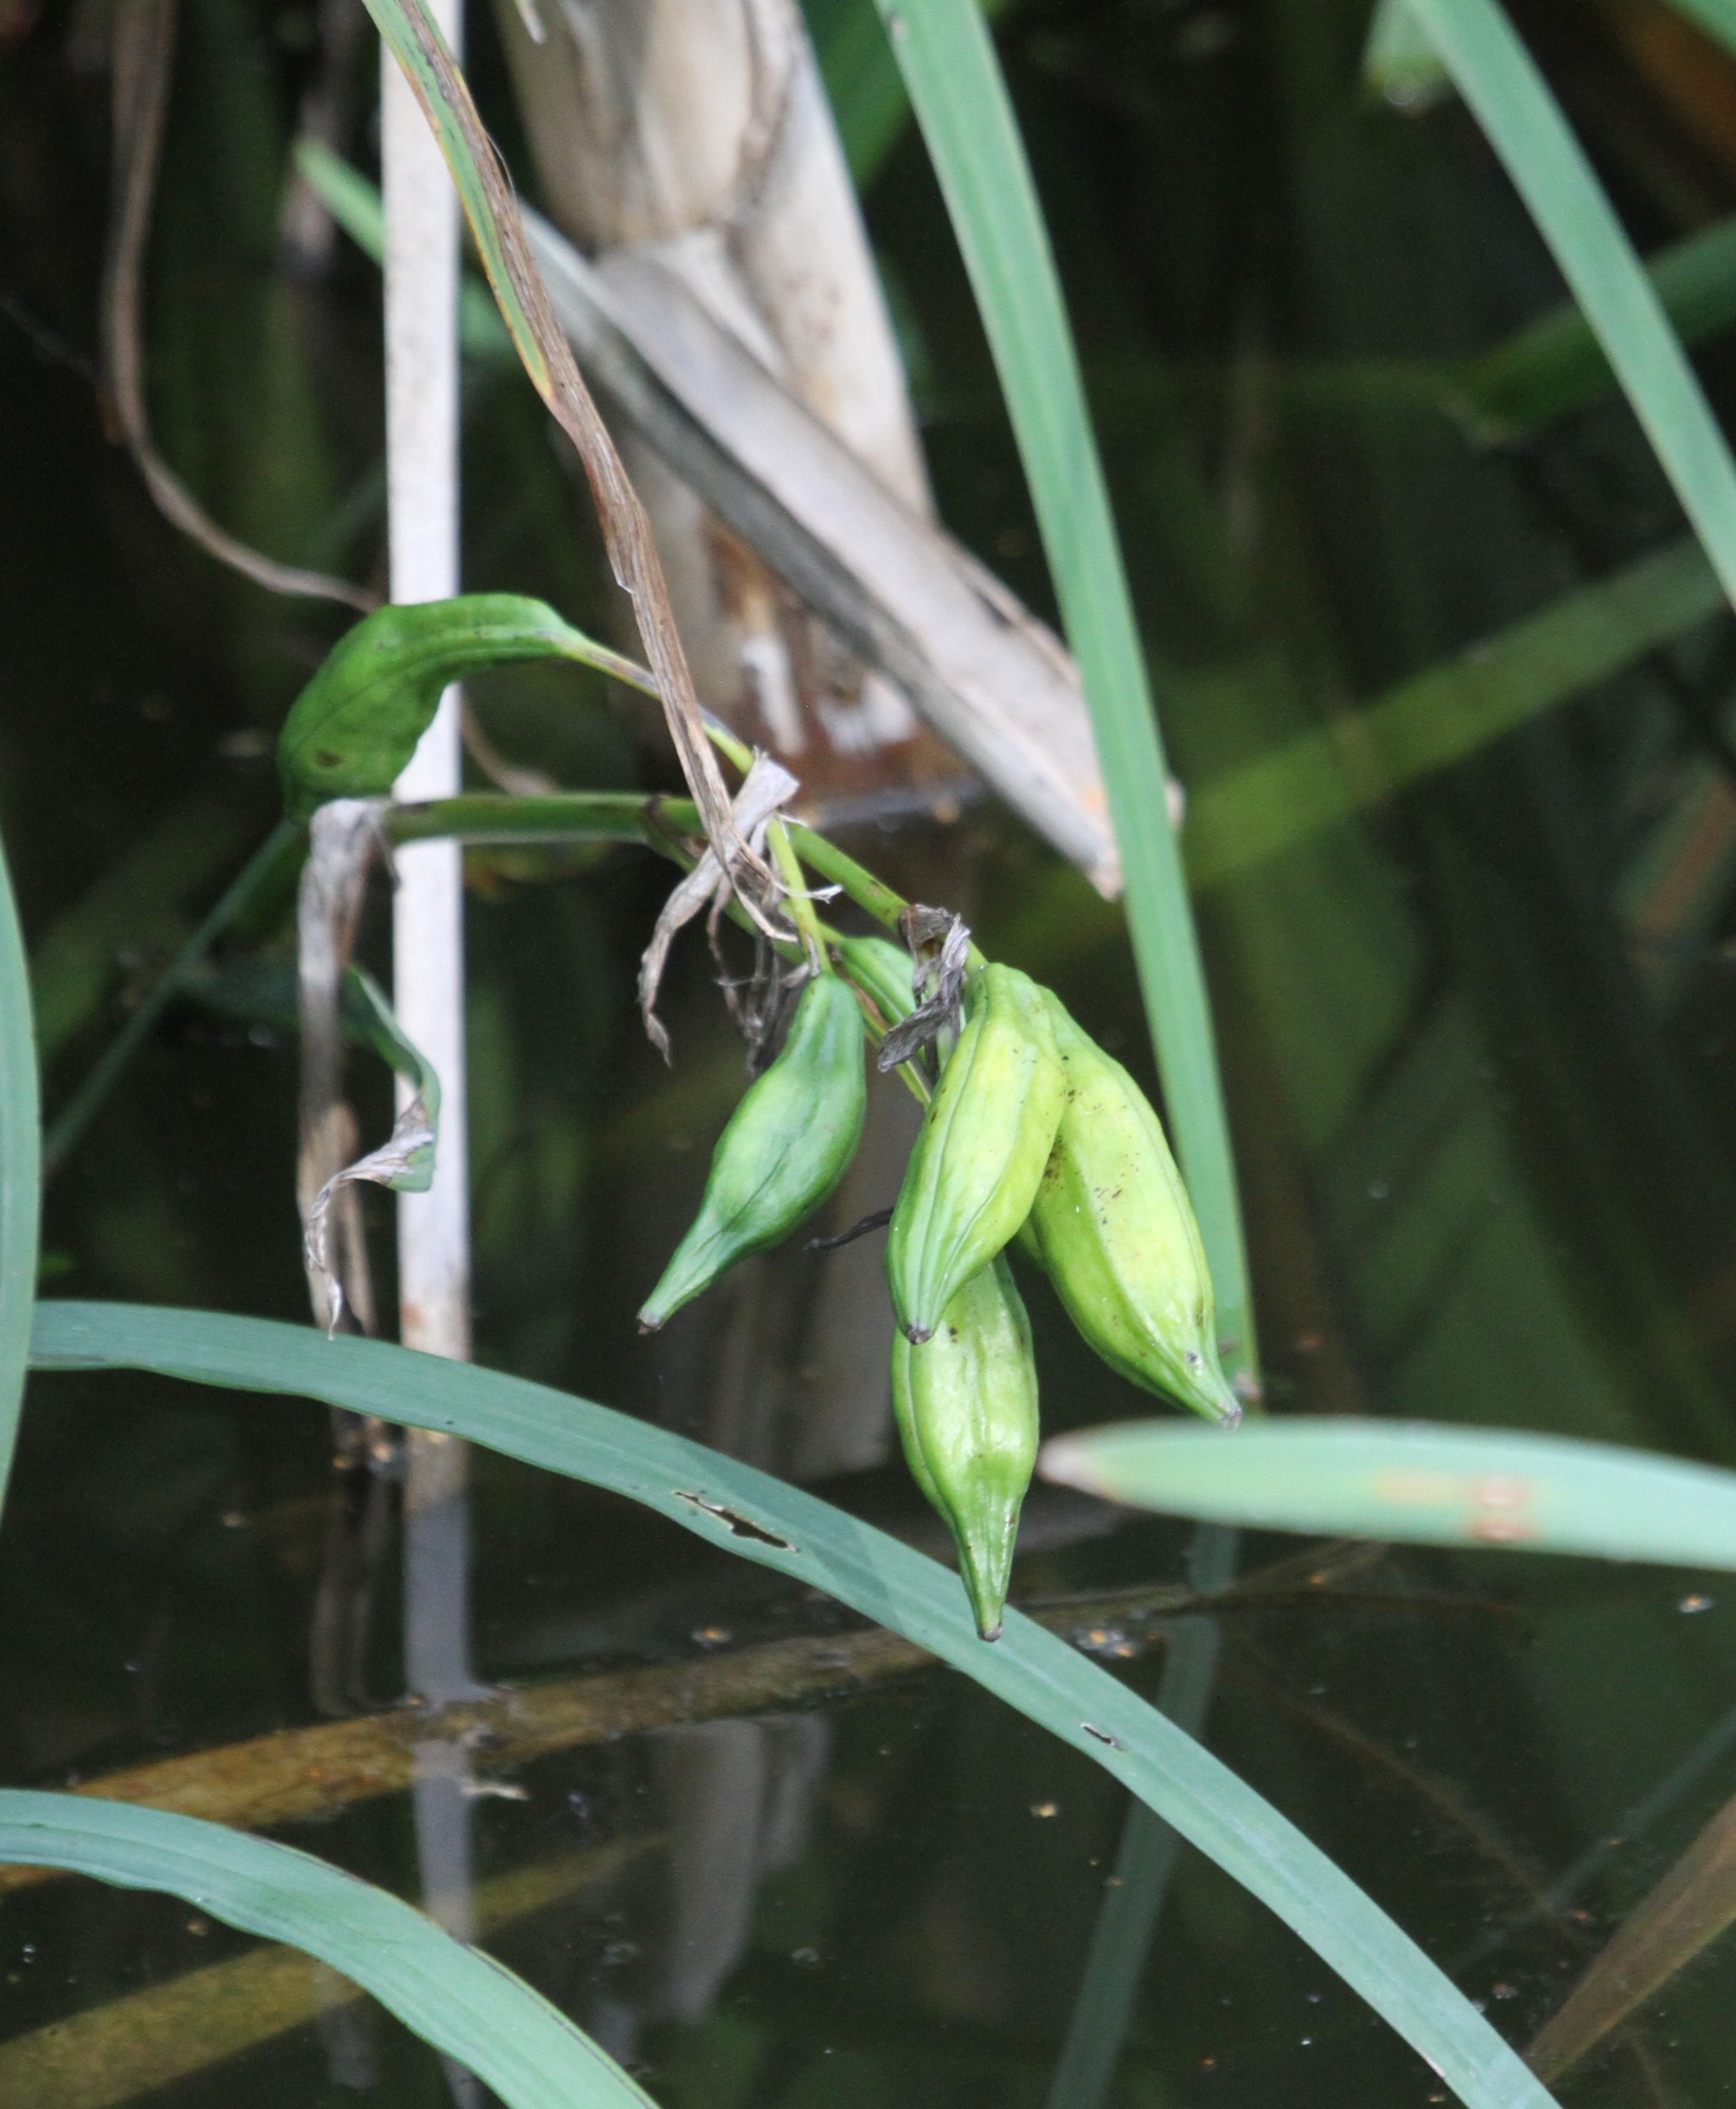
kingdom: Plantae
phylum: Tracheophyta
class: Liliopsida
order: Asparagales
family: Iridaceae
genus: Iris
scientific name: Iris pseudacorus
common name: Gul iris
